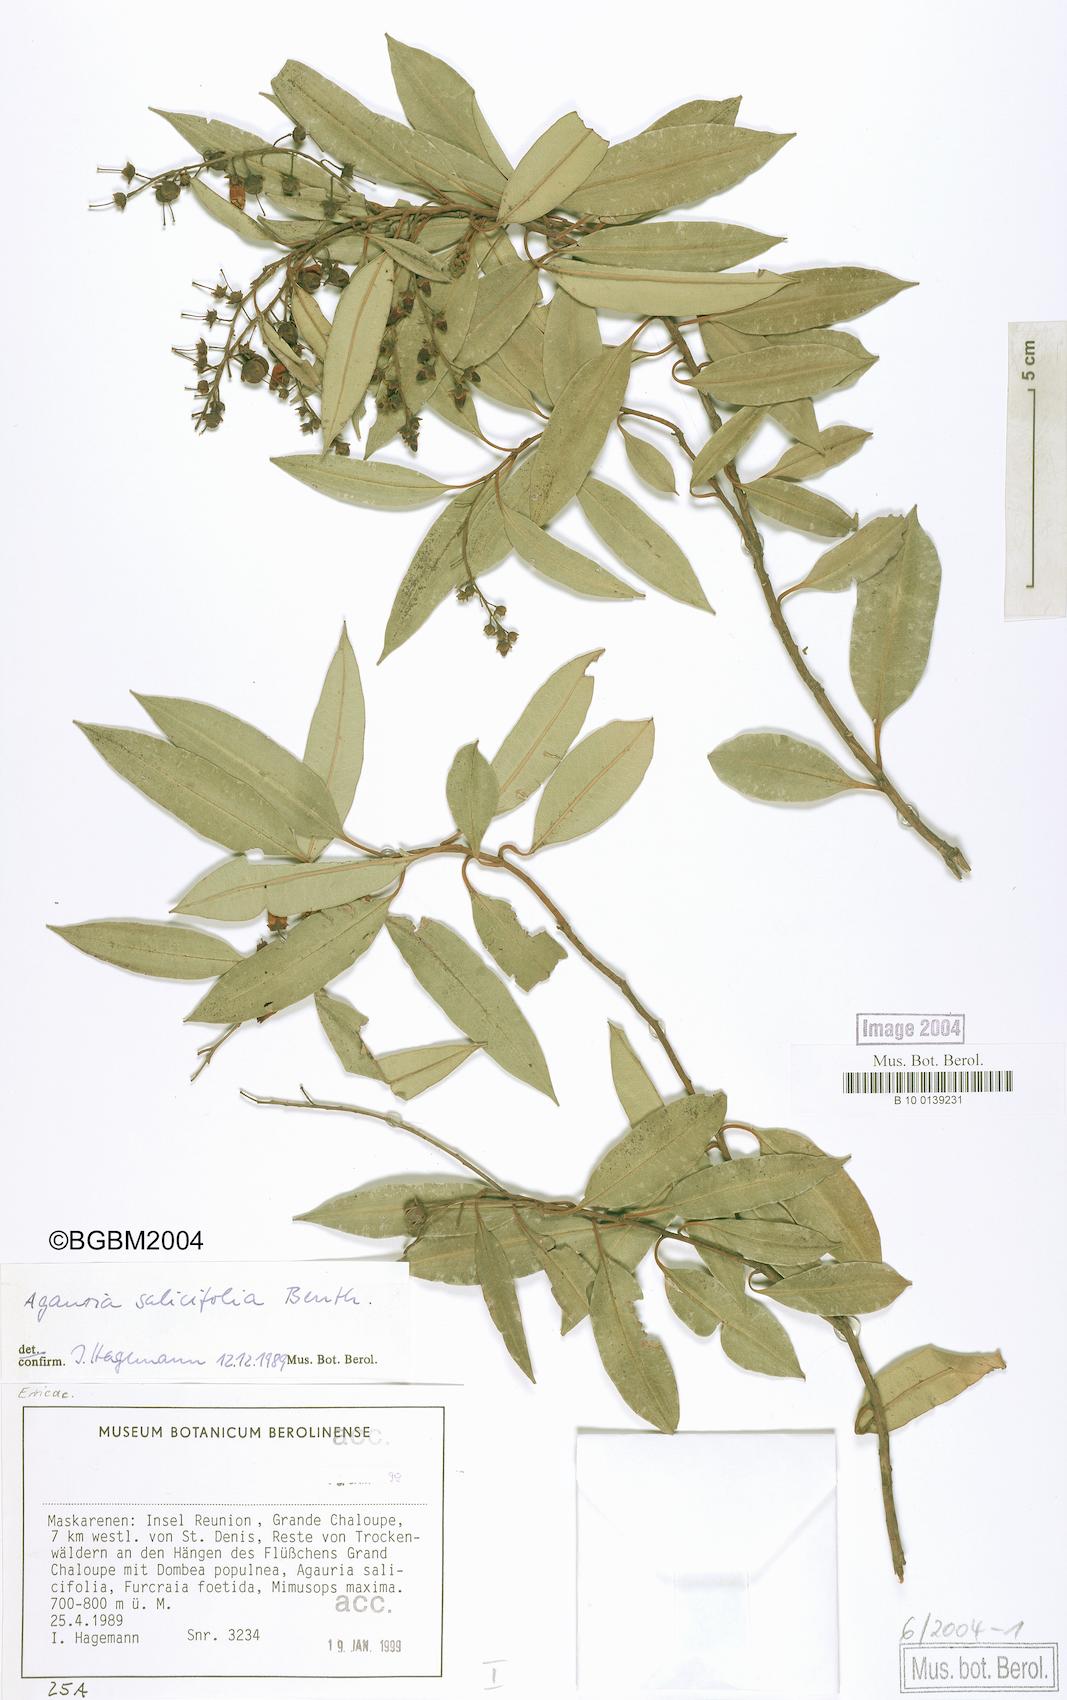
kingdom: Plantae
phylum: Tracheophyta
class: Magnoliopsida
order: Ericales
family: Ericaceae
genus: Agarista
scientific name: Agarista salicifolia
